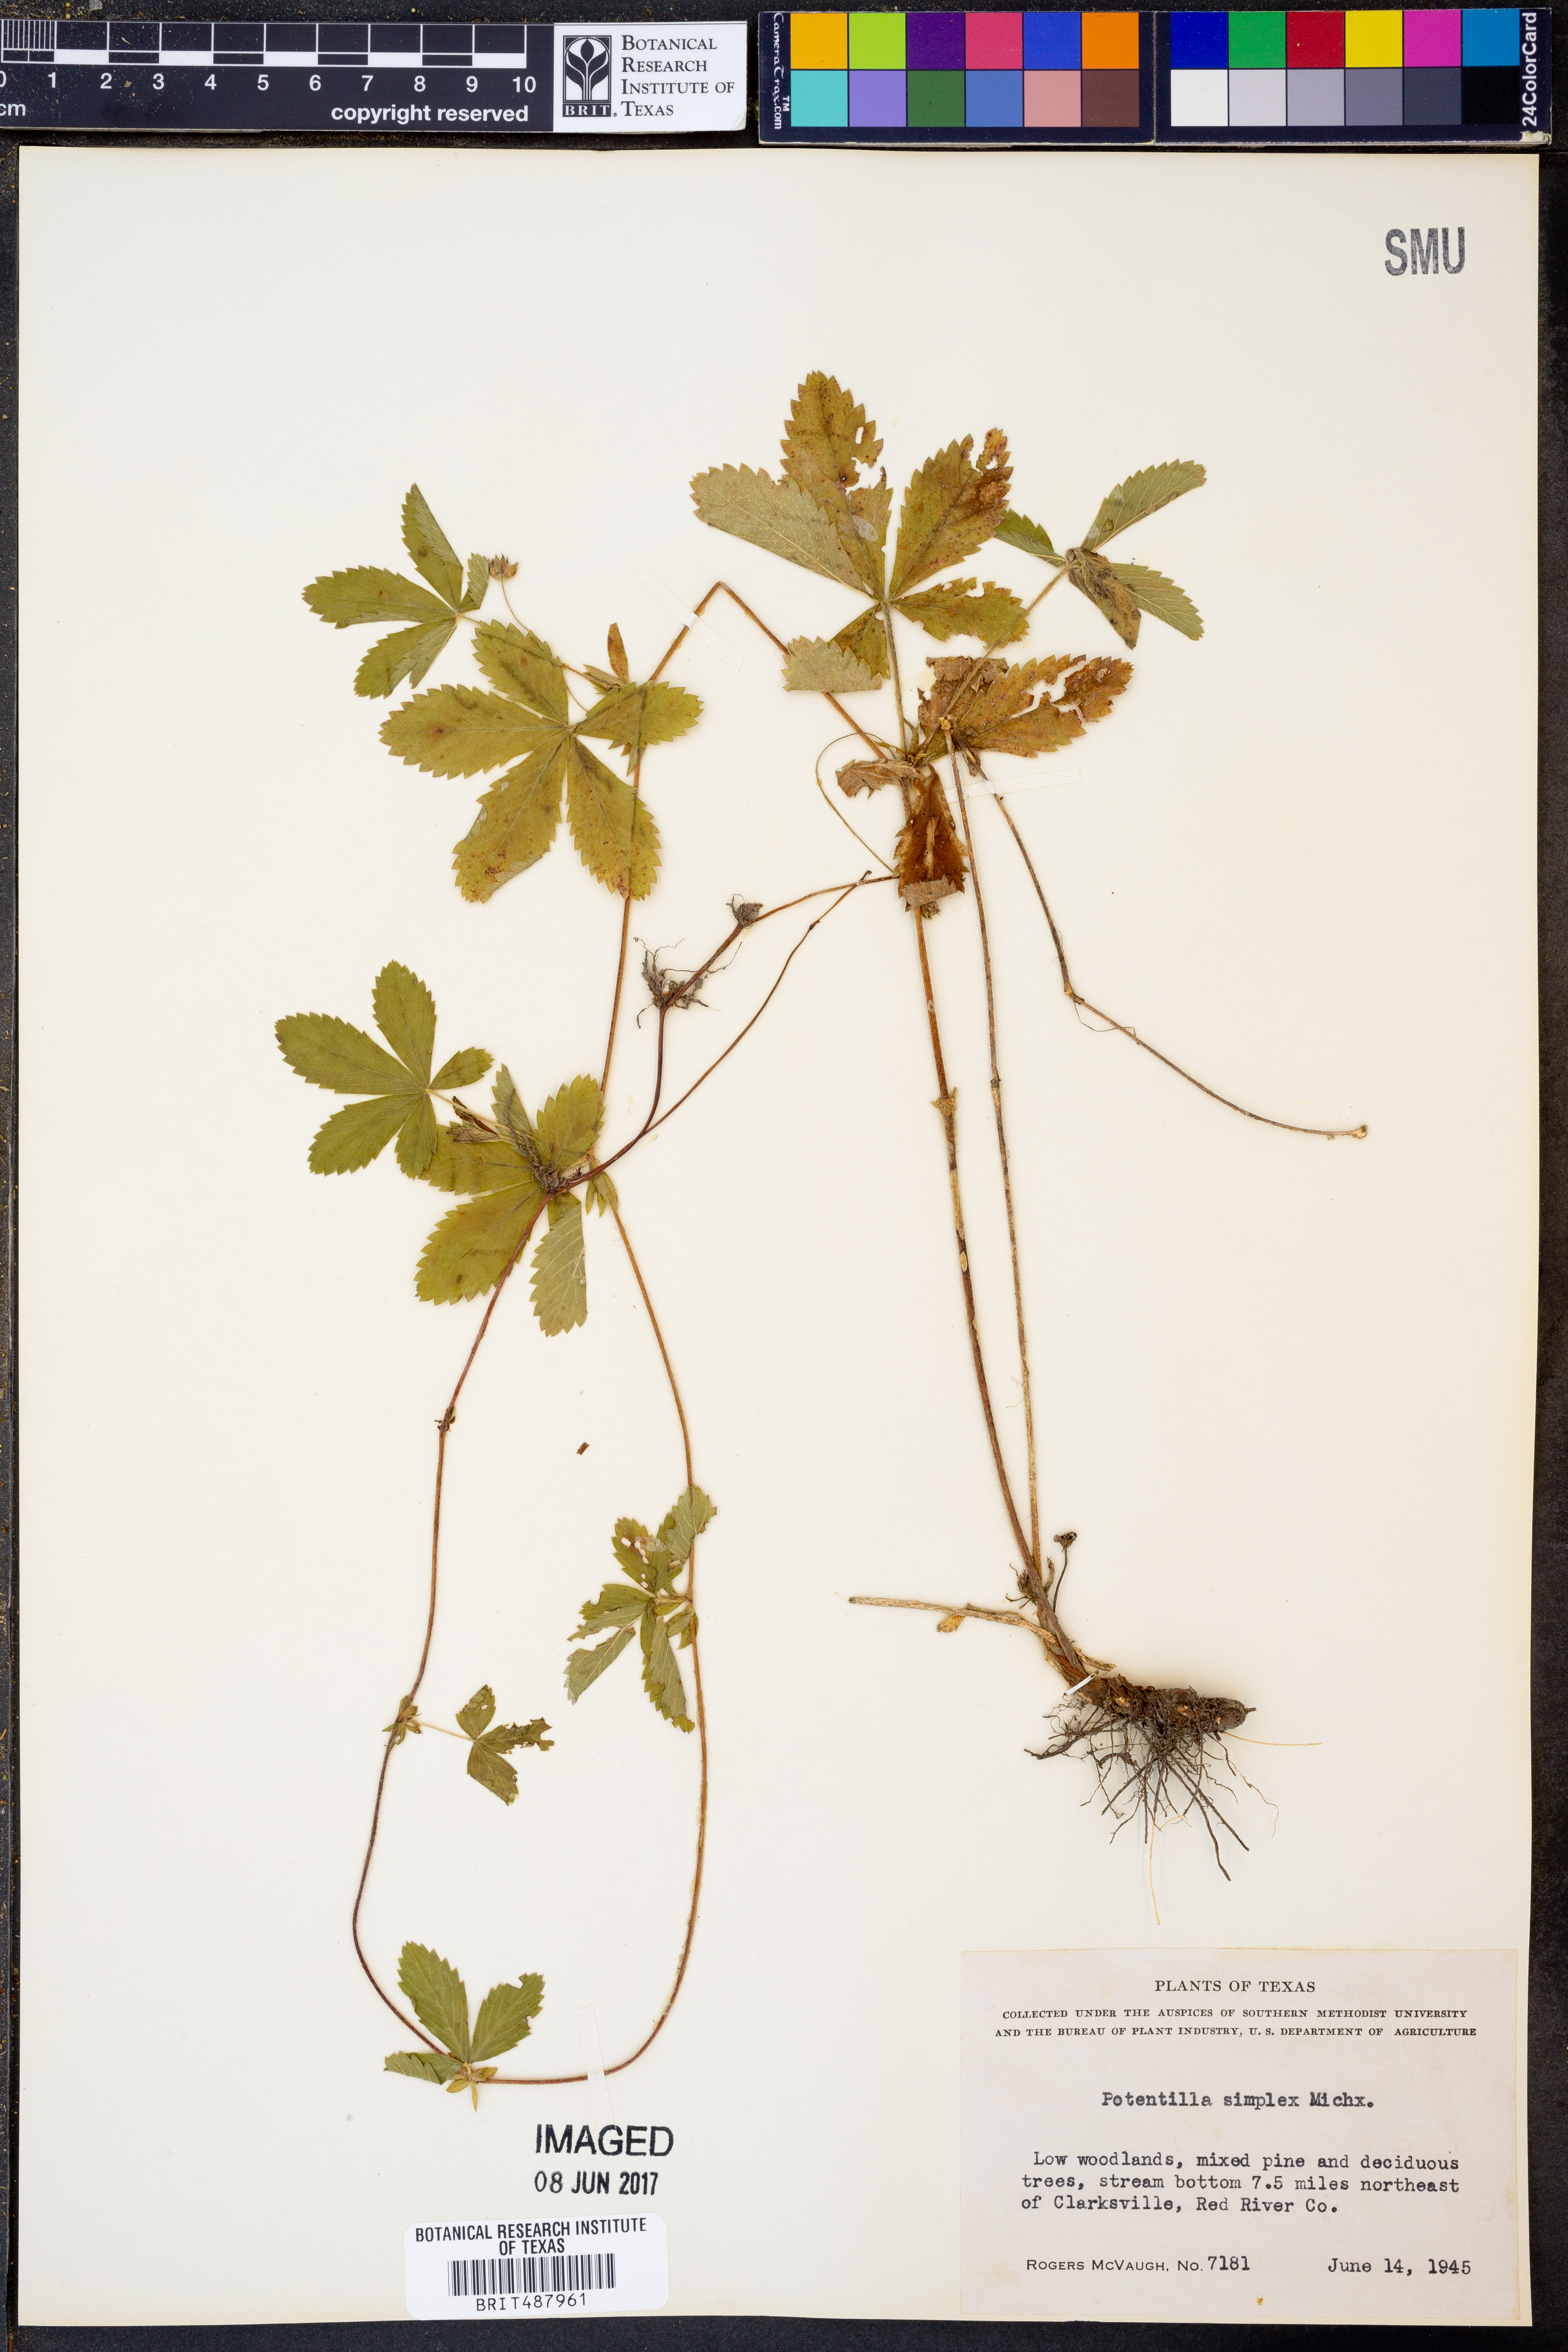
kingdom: Plantae
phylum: Tracheophyta
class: Magnoliopsida
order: Rosales
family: Rosaceae
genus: Potentilla
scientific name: Potentilla simplex
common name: Old field cinquefoil
